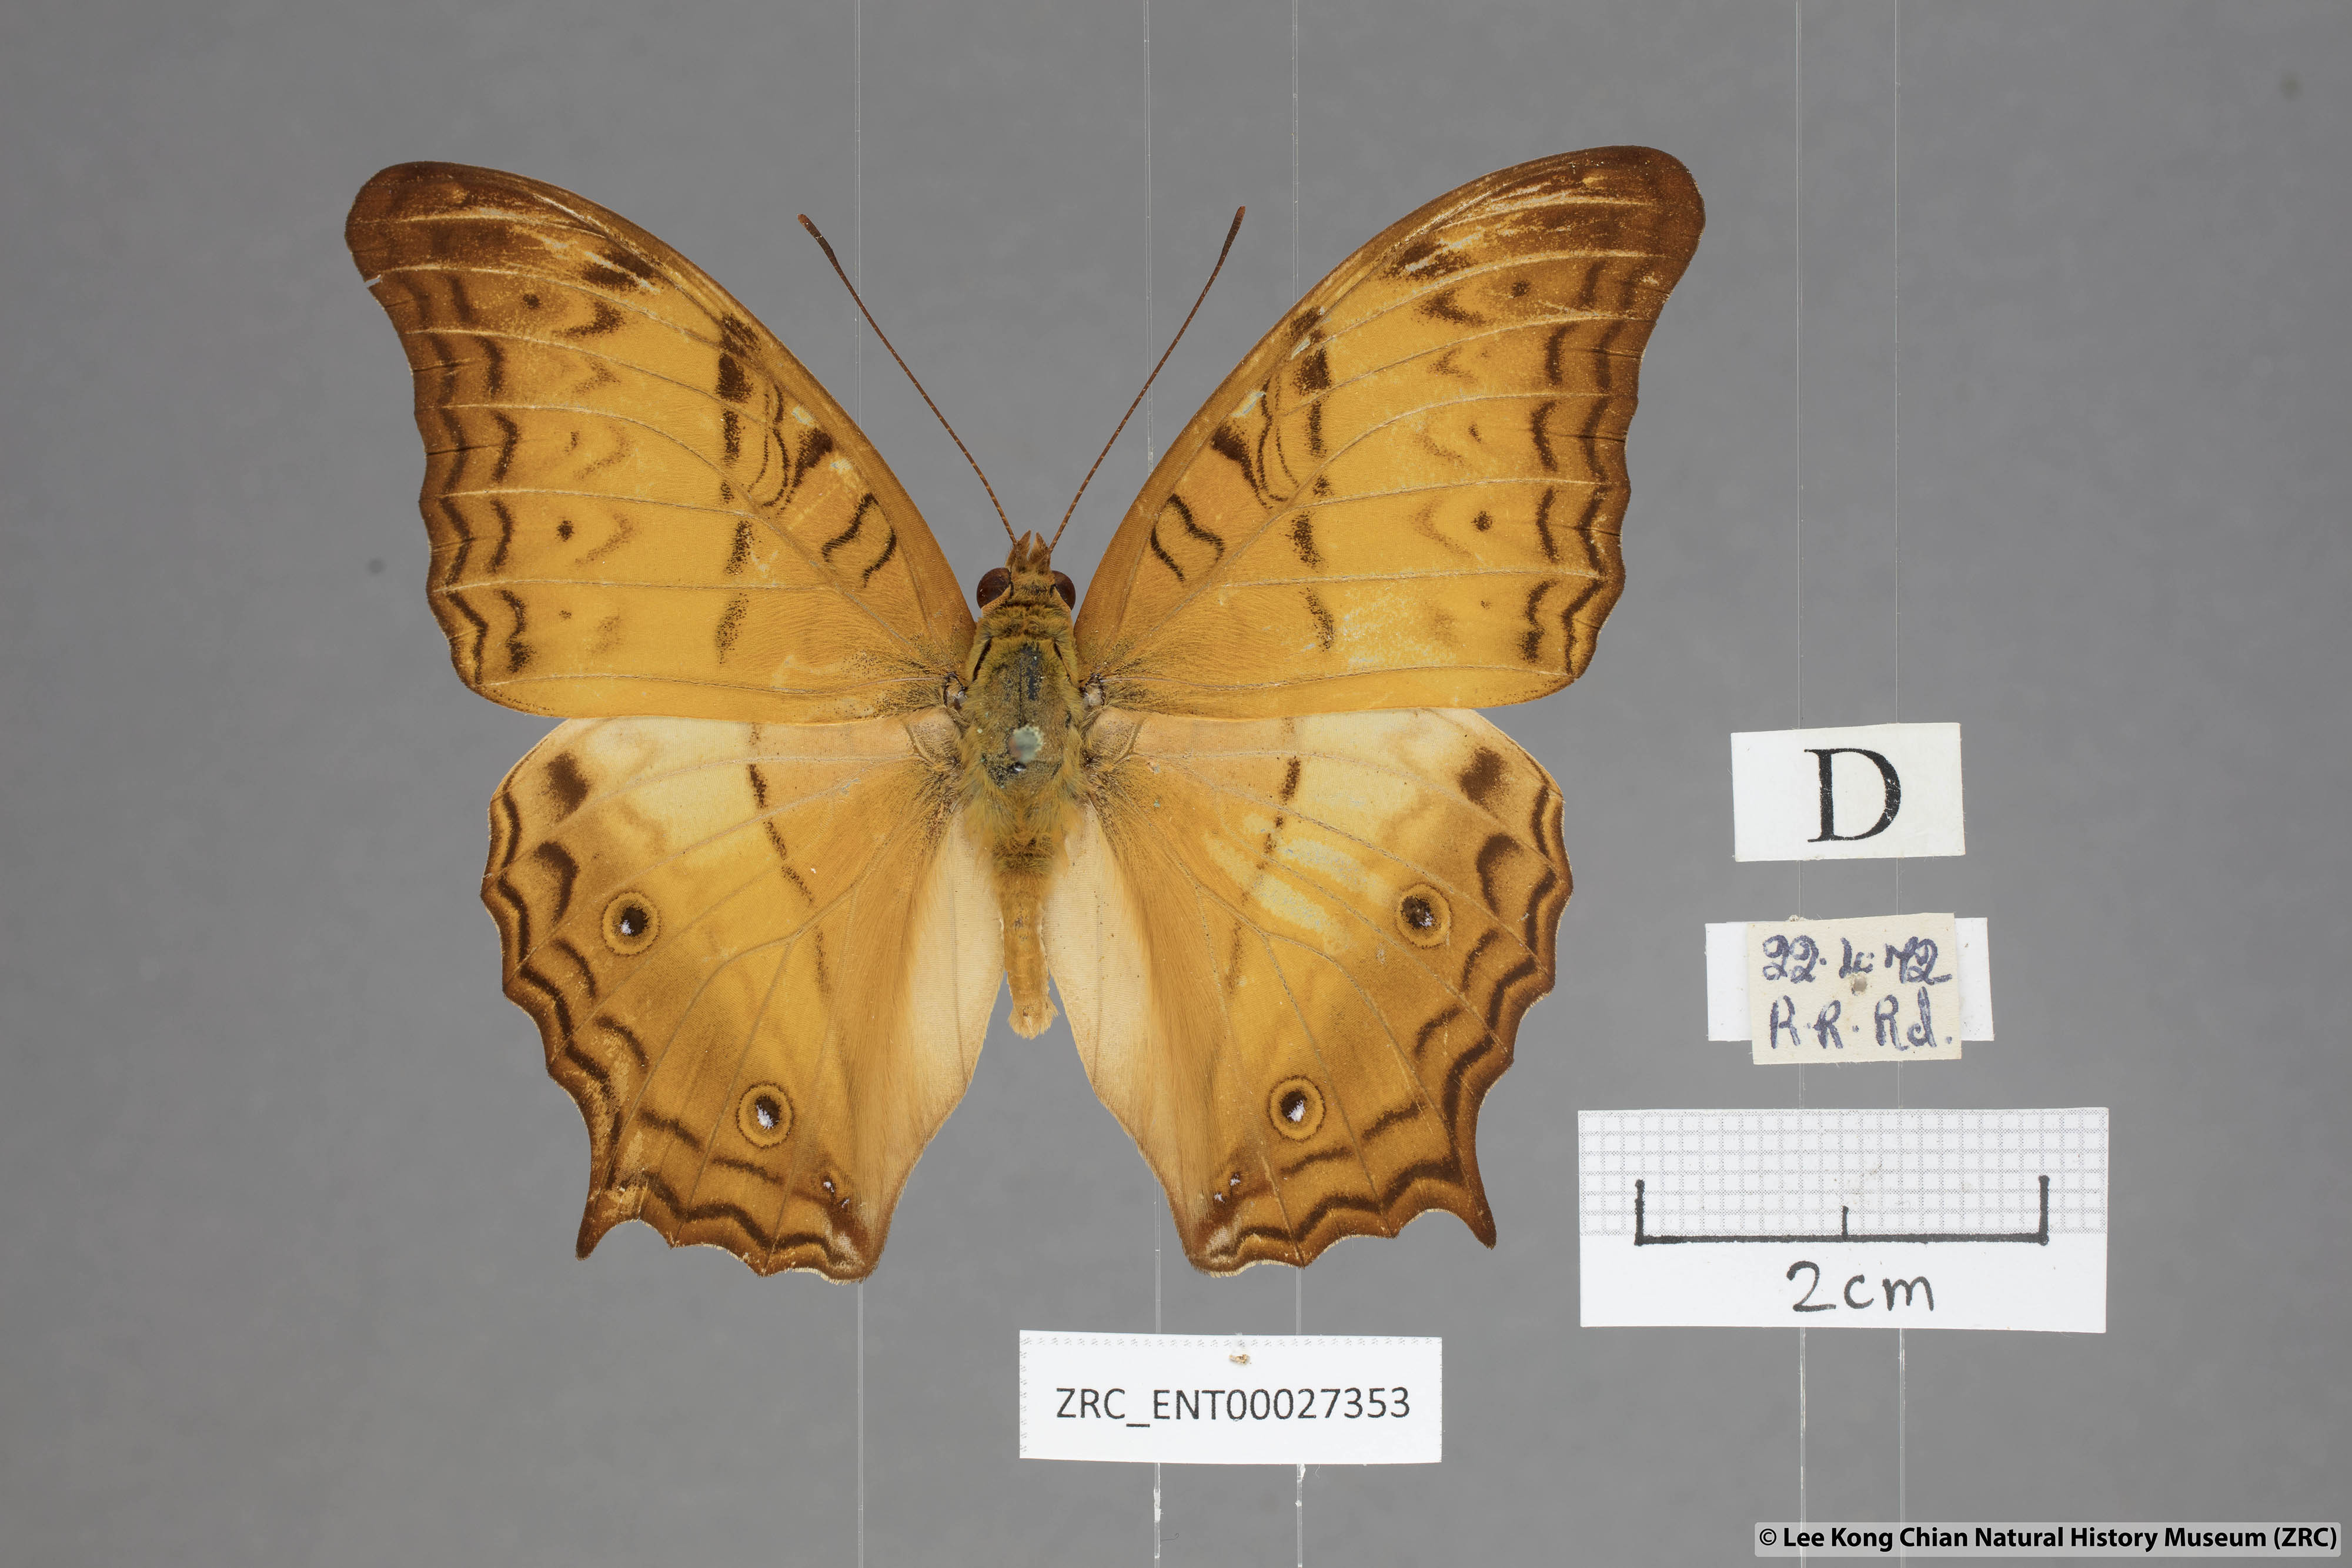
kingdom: Animalia
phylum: Arthropoda
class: Insecta
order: Lepidoptera
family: Nymphalidae
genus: Vindula
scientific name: Vindula deione
